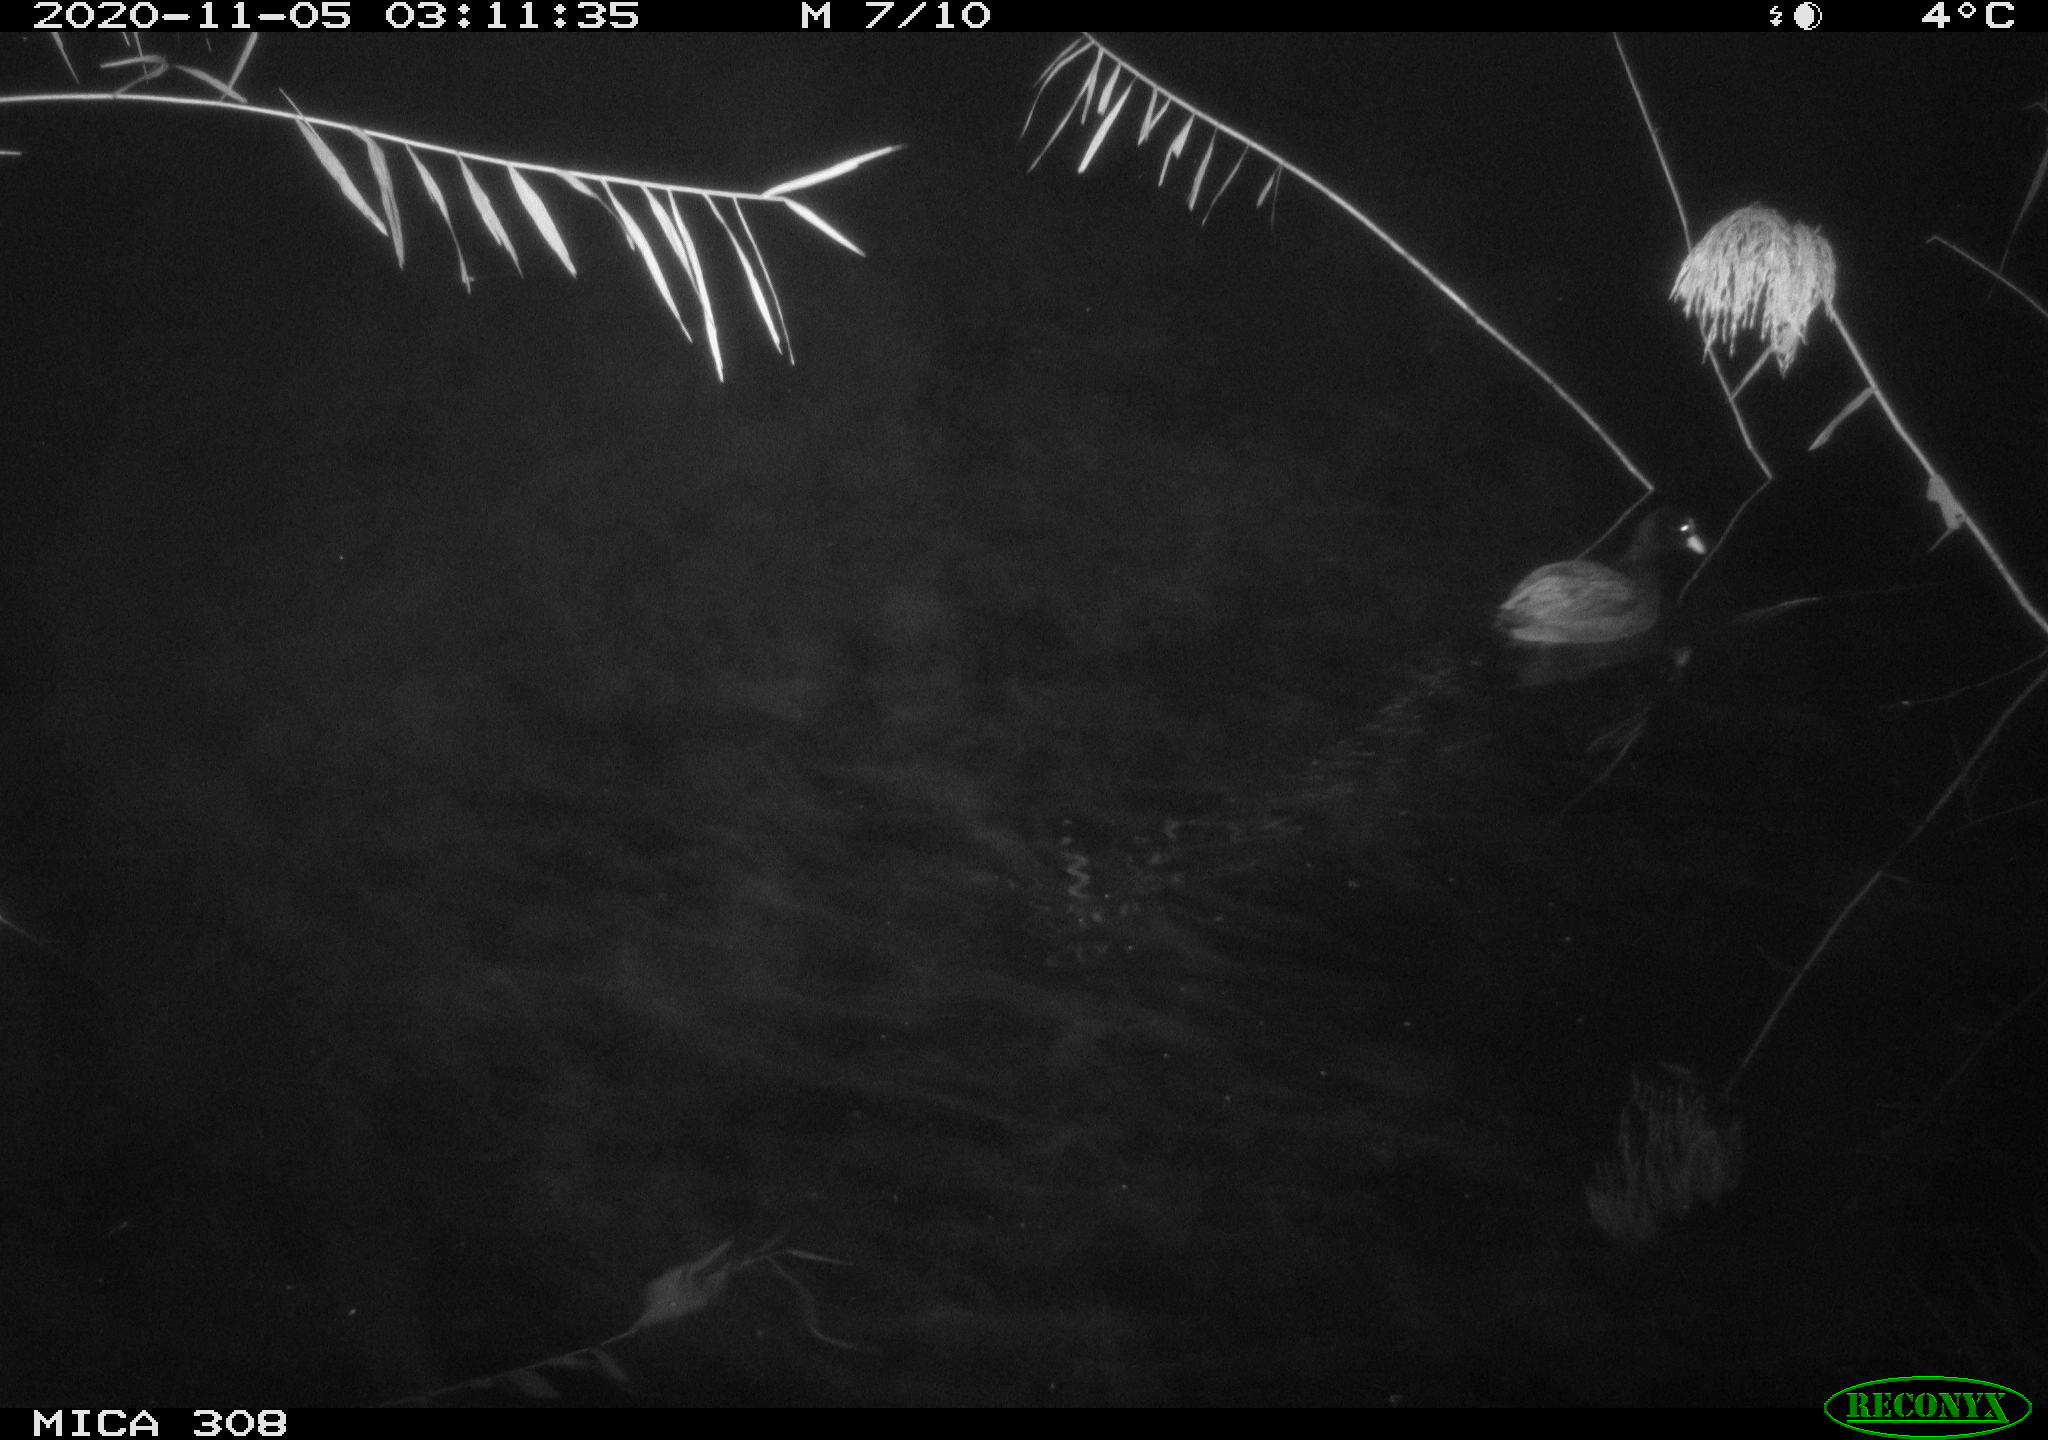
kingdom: Animalia
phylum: Chordata
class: Aves
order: Gruiformes
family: Rallidae
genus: Fulica
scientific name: Fulica atra
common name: Eurasian coot
